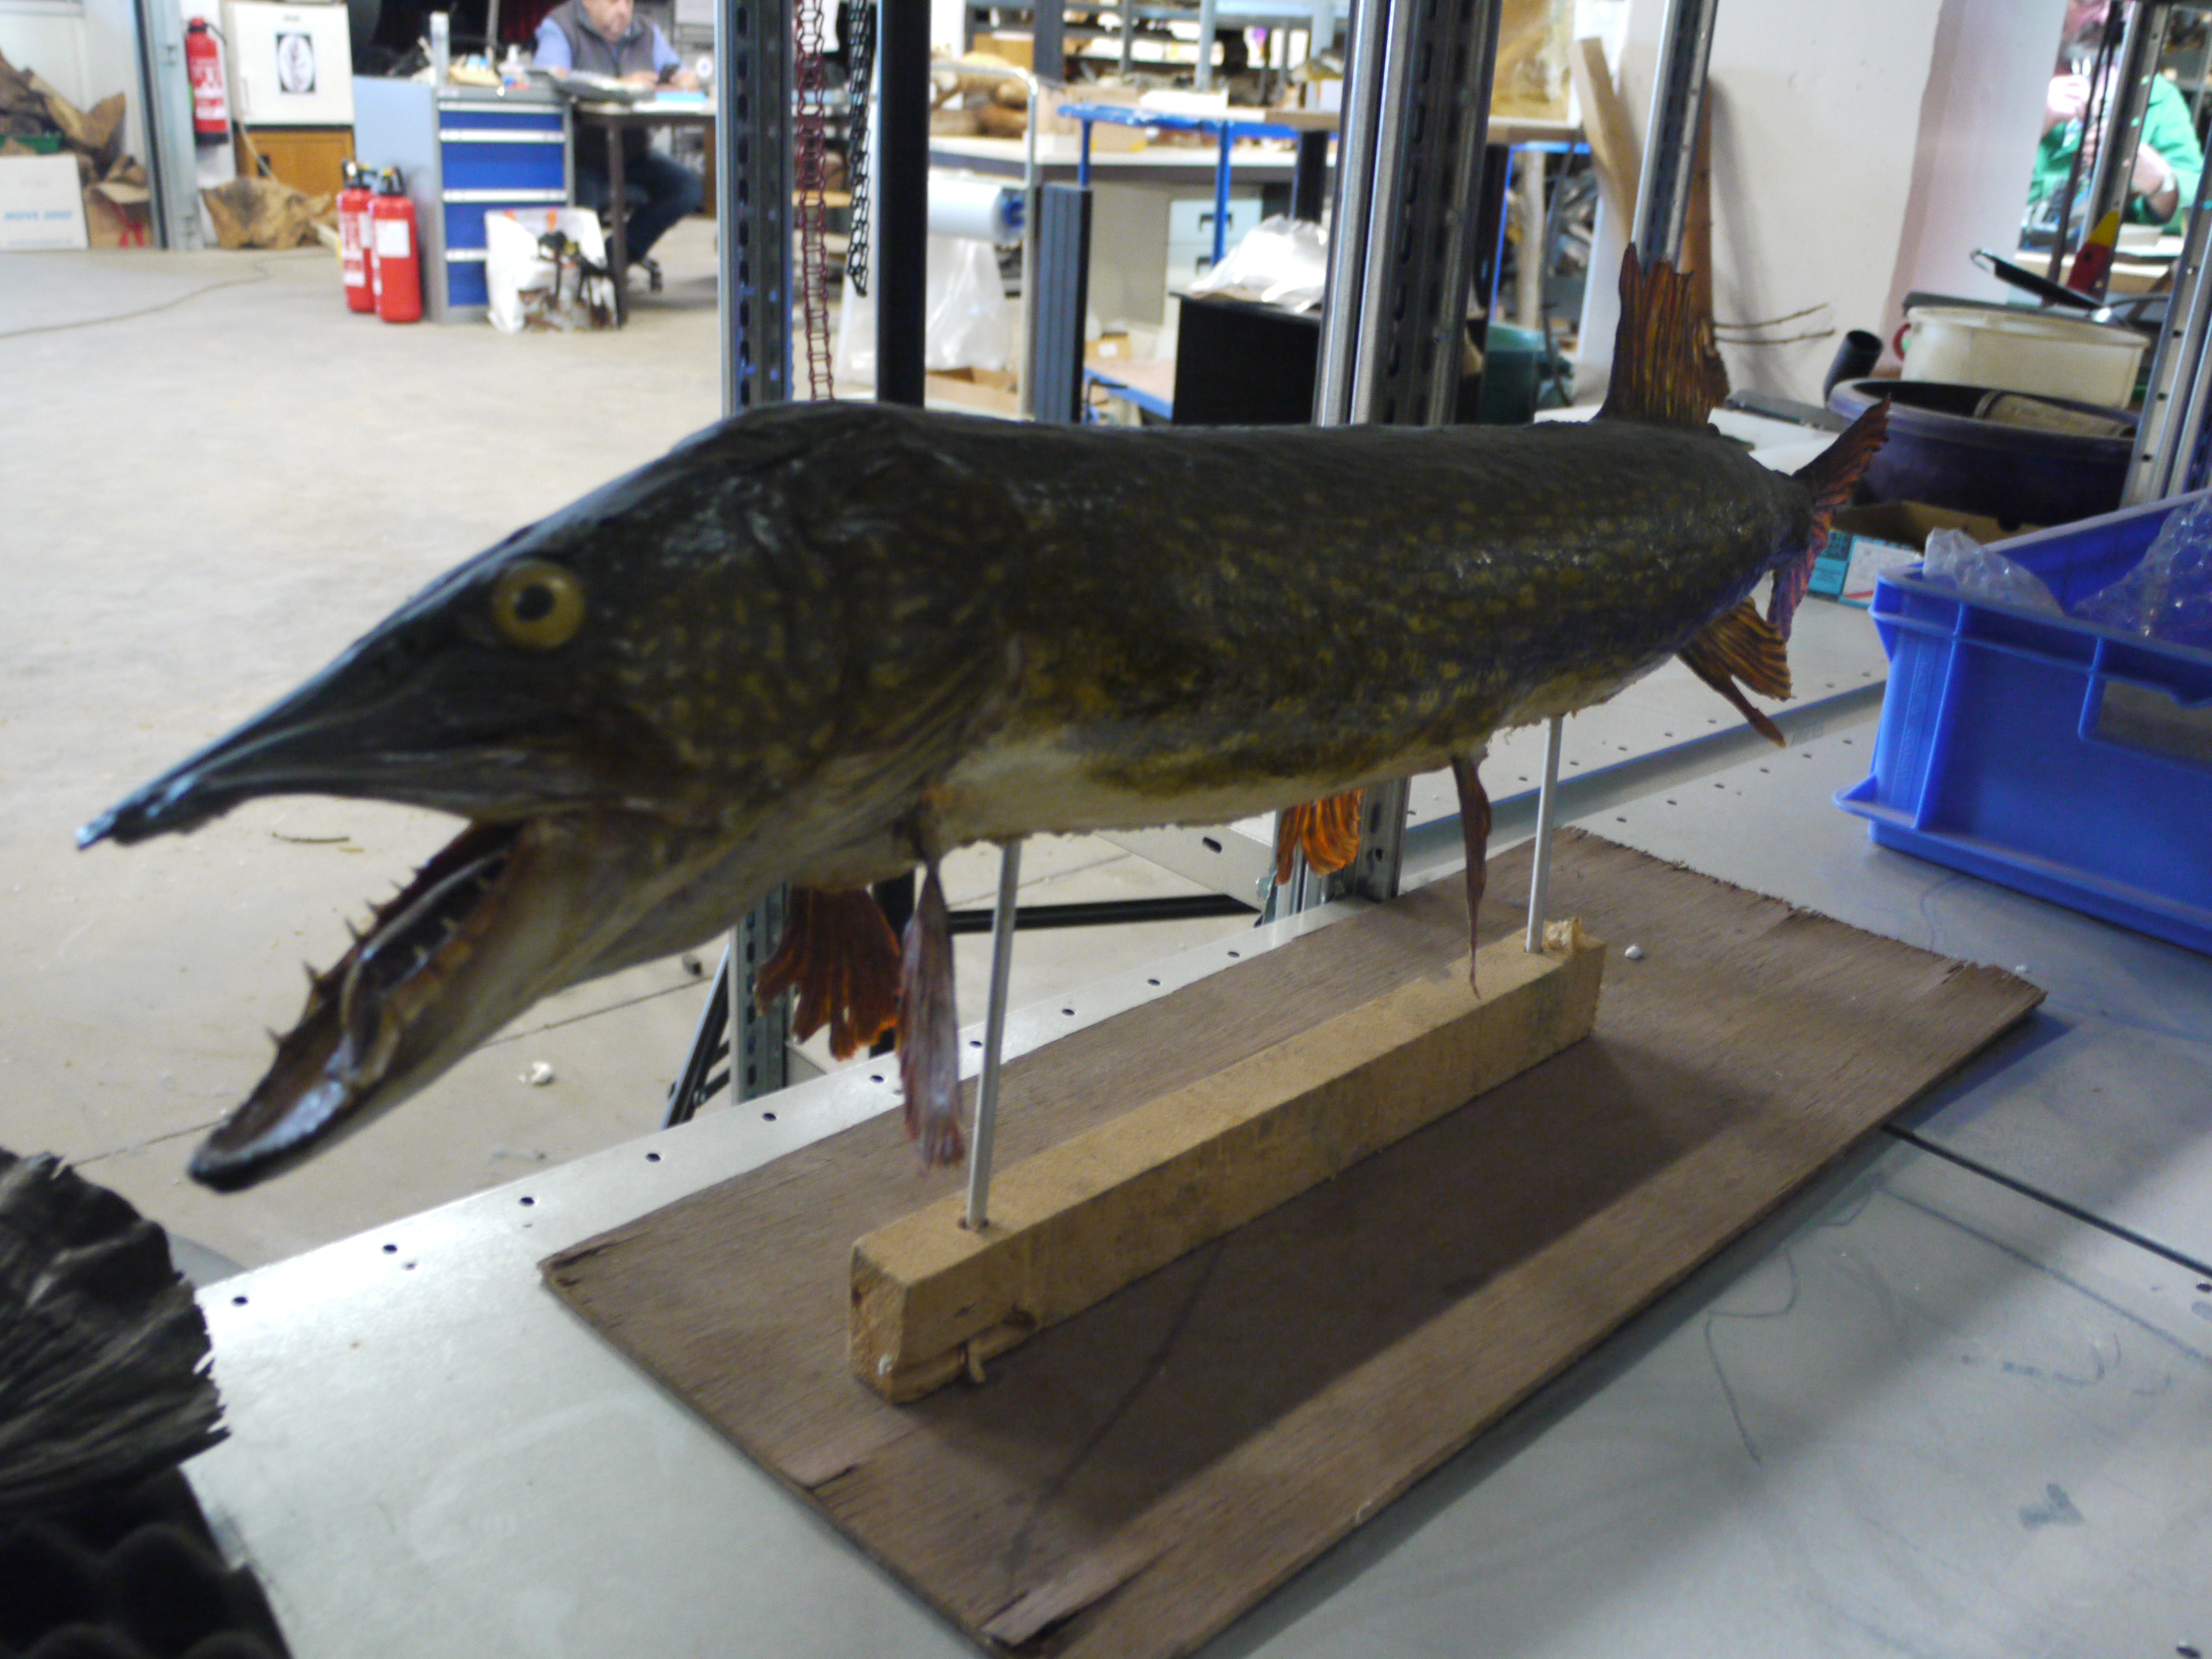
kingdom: Animalia
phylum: Chordata
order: Esociformes
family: Esocidae
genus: Esox
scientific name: Esox lucius
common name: Northern pike
